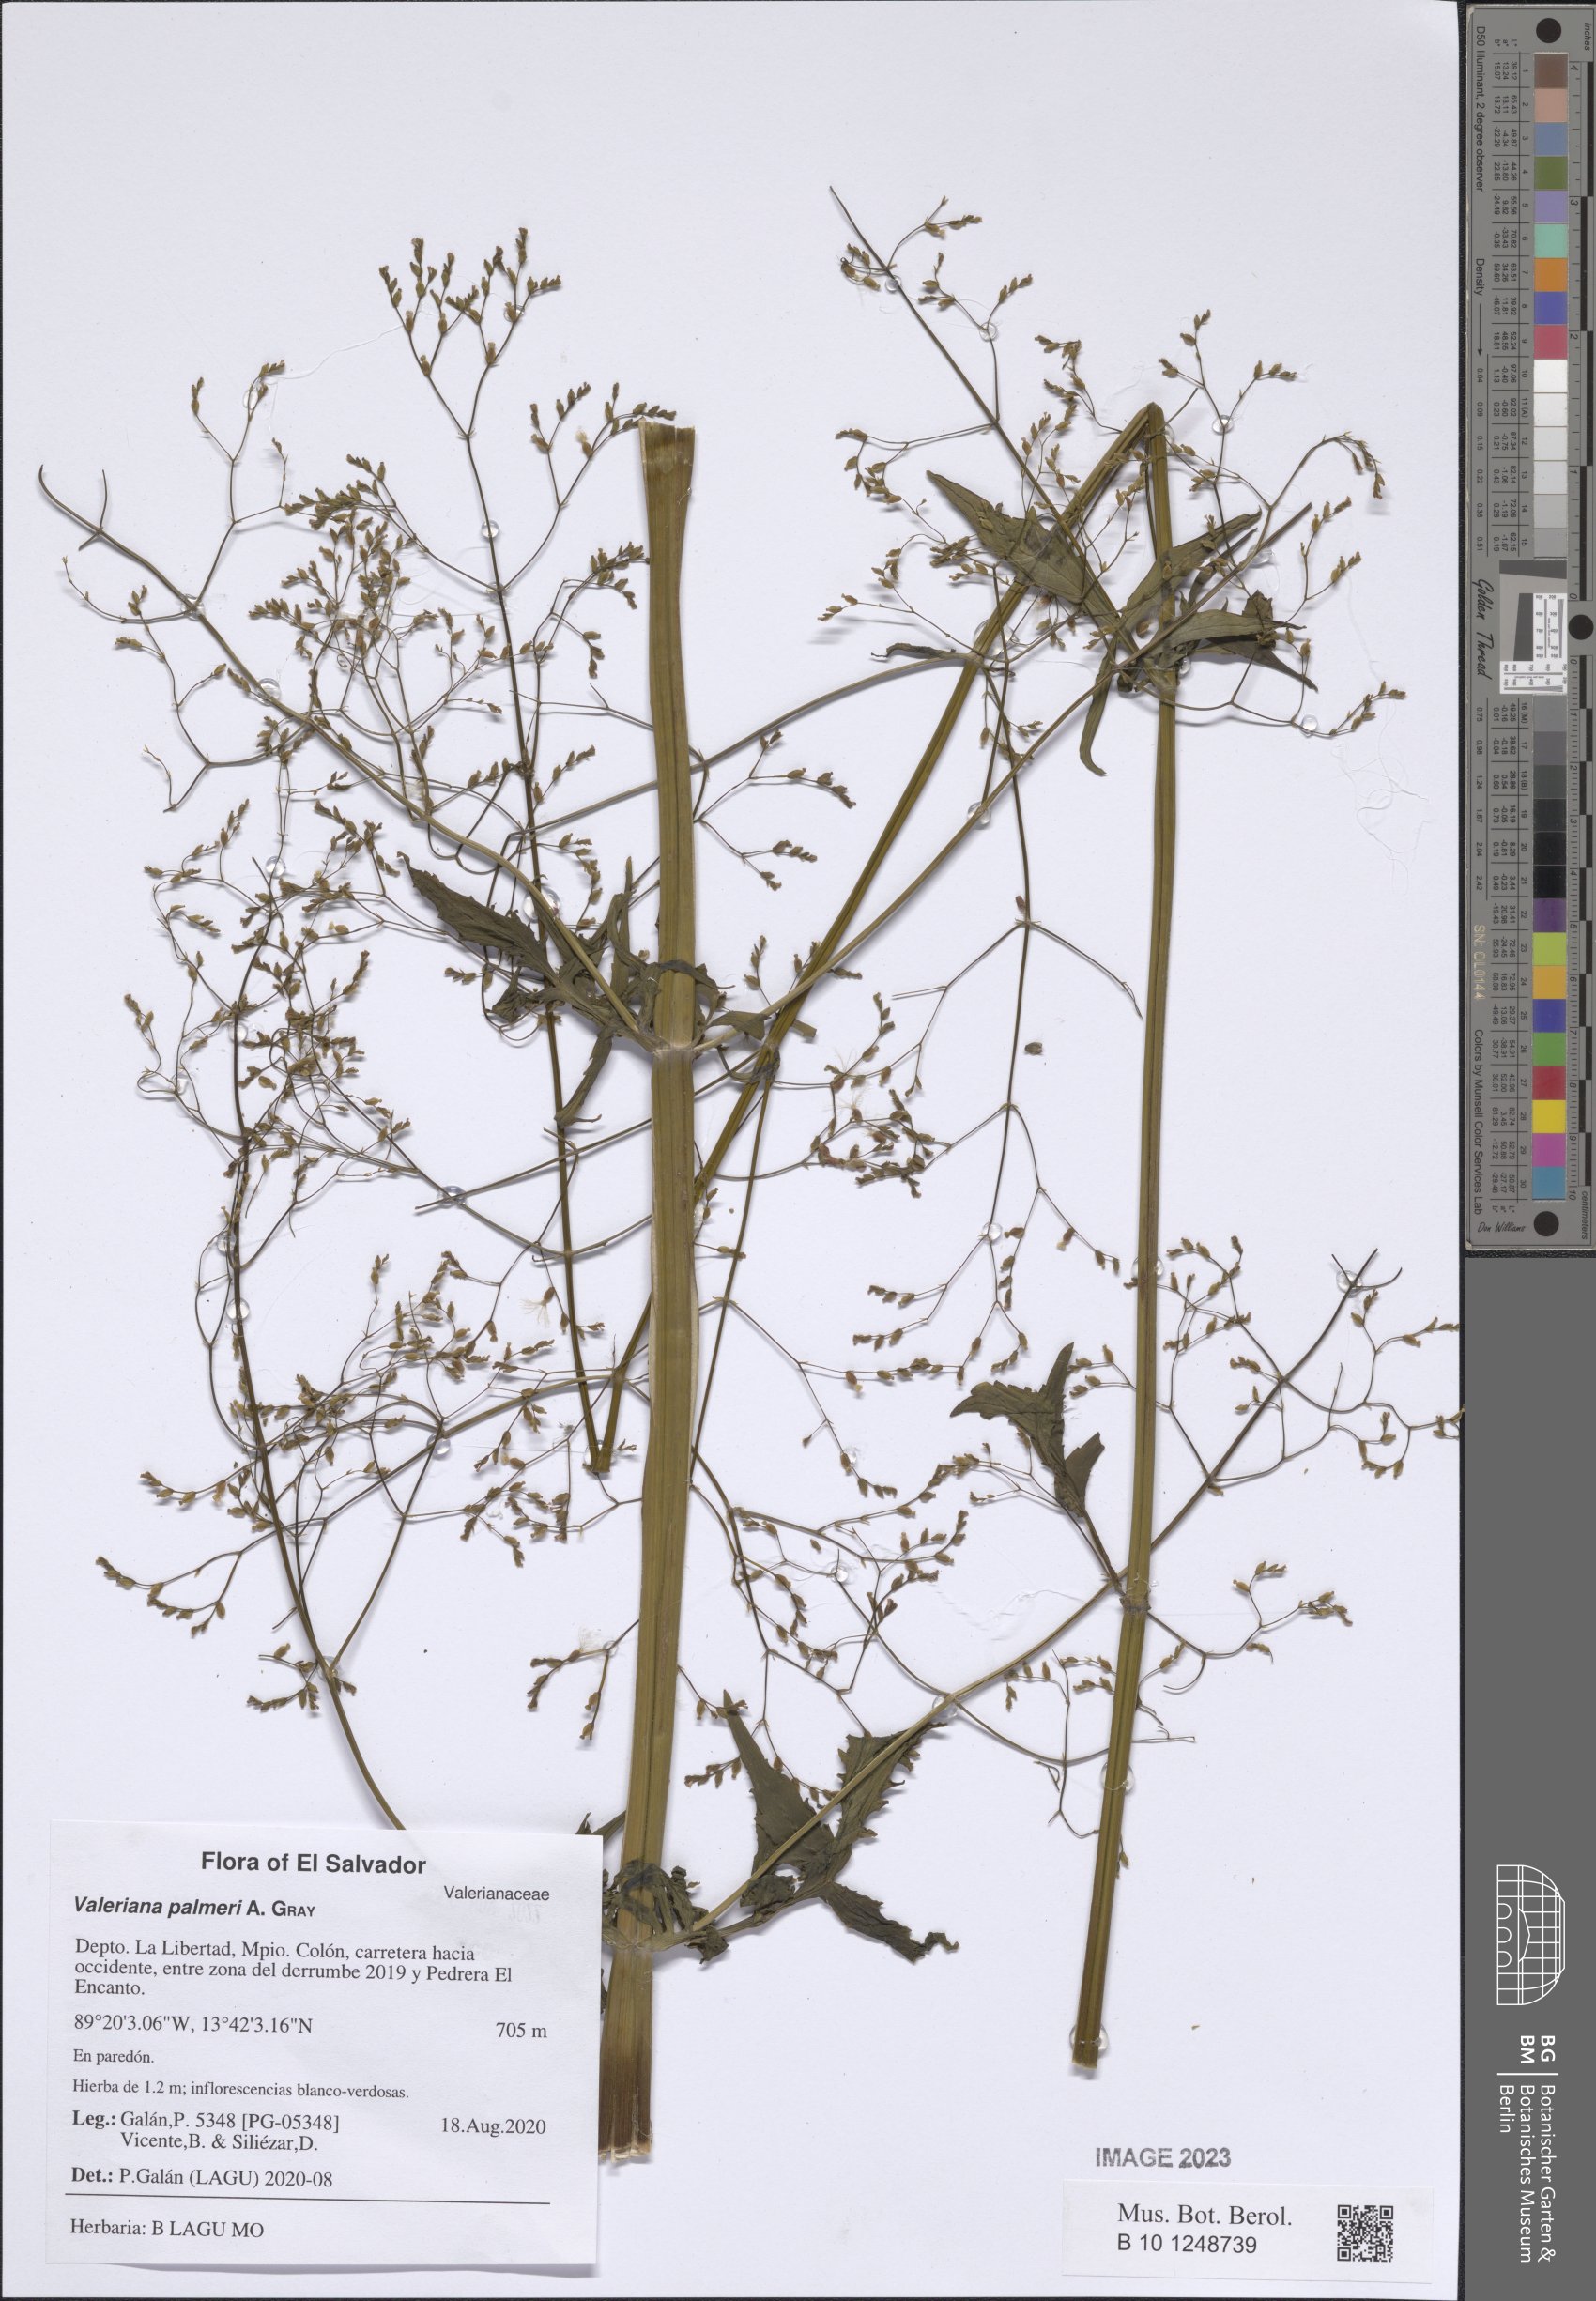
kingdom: Plantae
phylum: Tracheophyta
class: Magnoliopsida
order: Dipsacales
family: Caprifoliaceae
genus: Valeriana
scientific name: Valeriana palmeri
